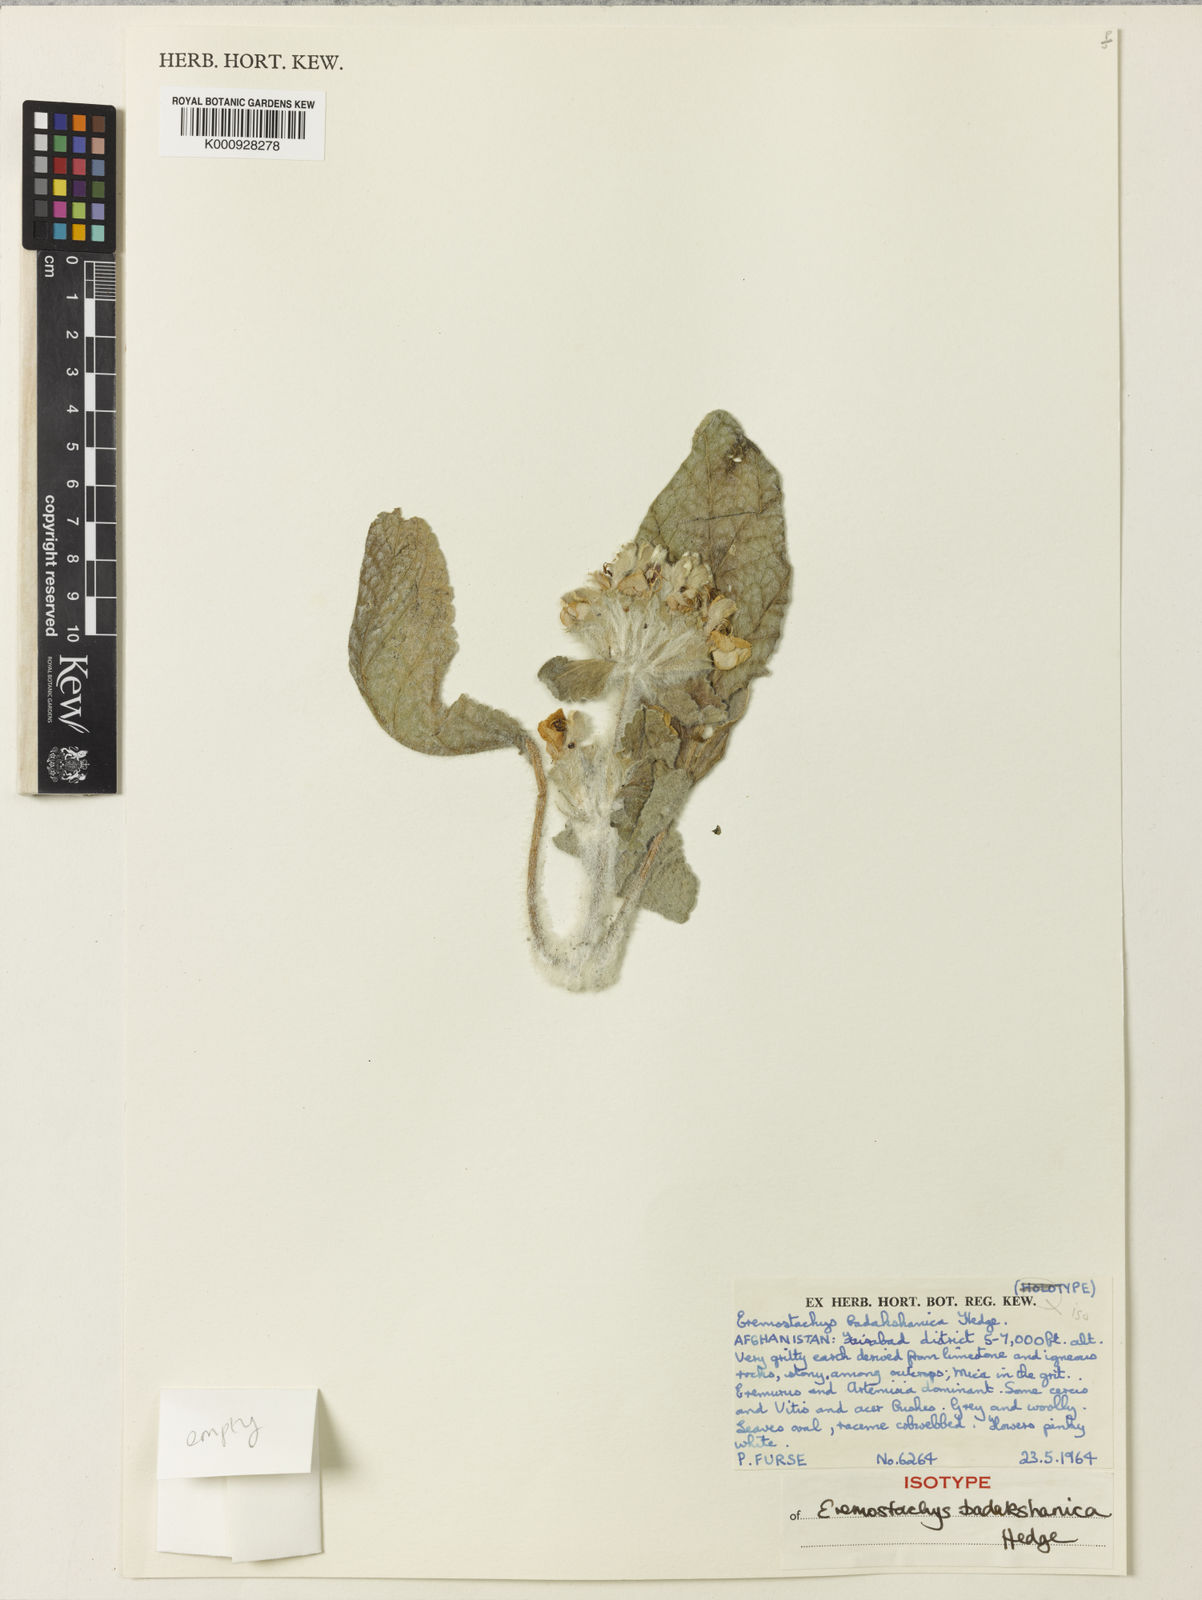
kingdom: Plantae
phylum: Tracheophyta
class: Magnoliopsida
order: Lamiales
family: Lamiaceae
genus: Phlomoides
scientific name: Phlomoides badakshanica
